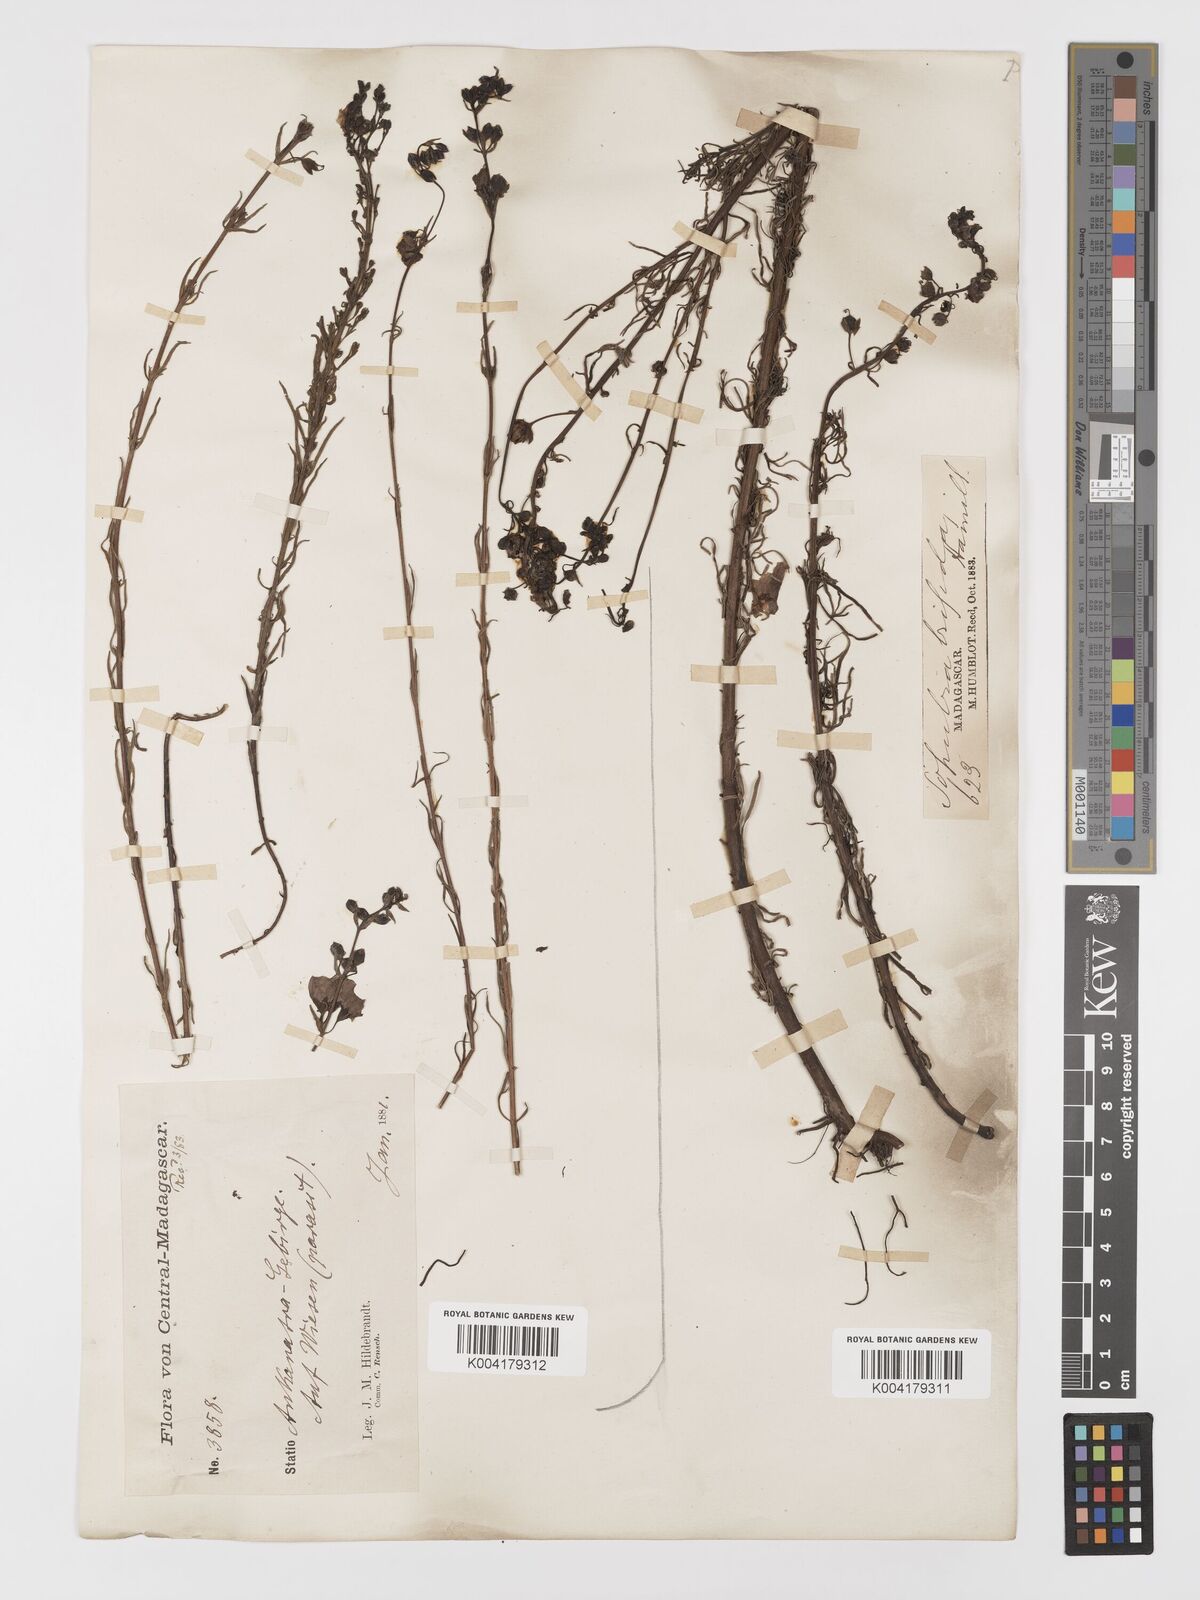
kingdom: Plantae
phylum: Tracheophyta
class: Magnoliopsida
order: Lamiales
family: Orobanchaceae
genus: Sopubia
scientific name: Sopubia trifida
